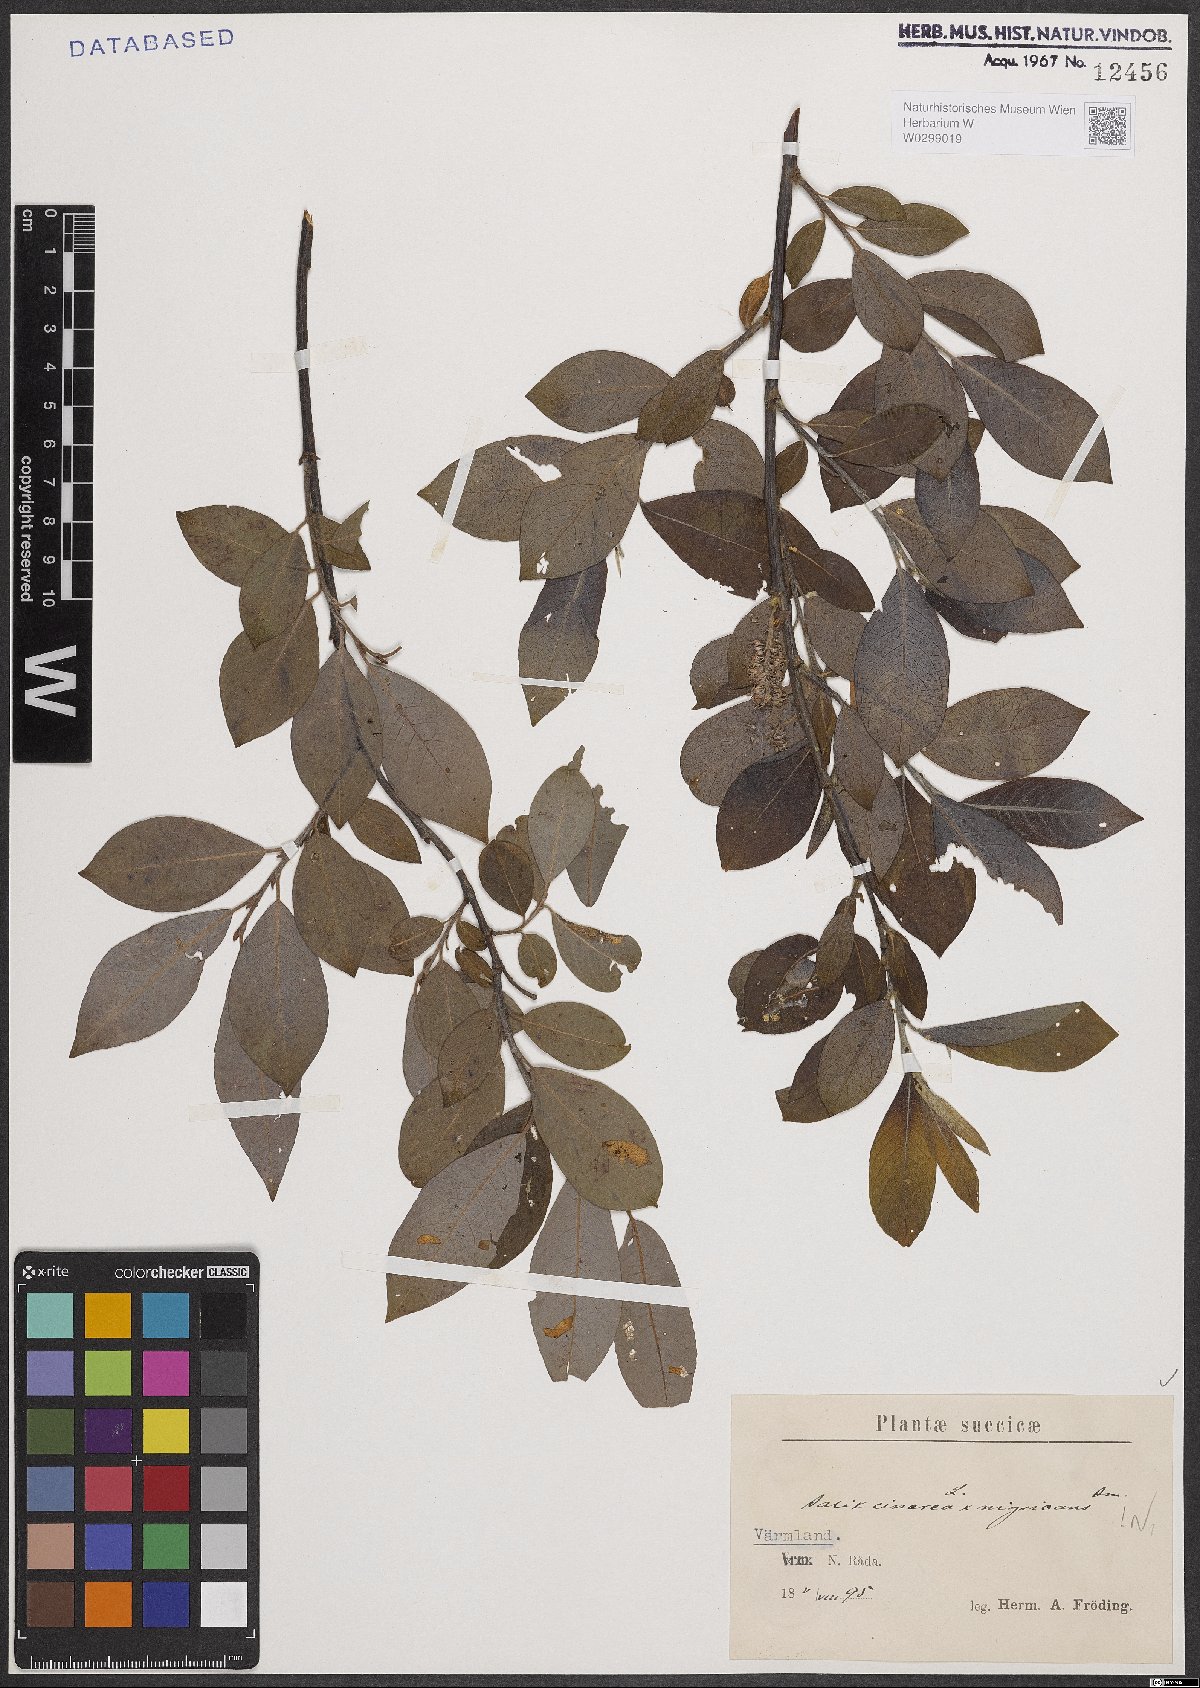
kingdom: Plantae
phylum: Tracheophyta
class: Magnoliopsida
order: Malpighiales
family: Salicaceae
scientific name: Salicaceae
